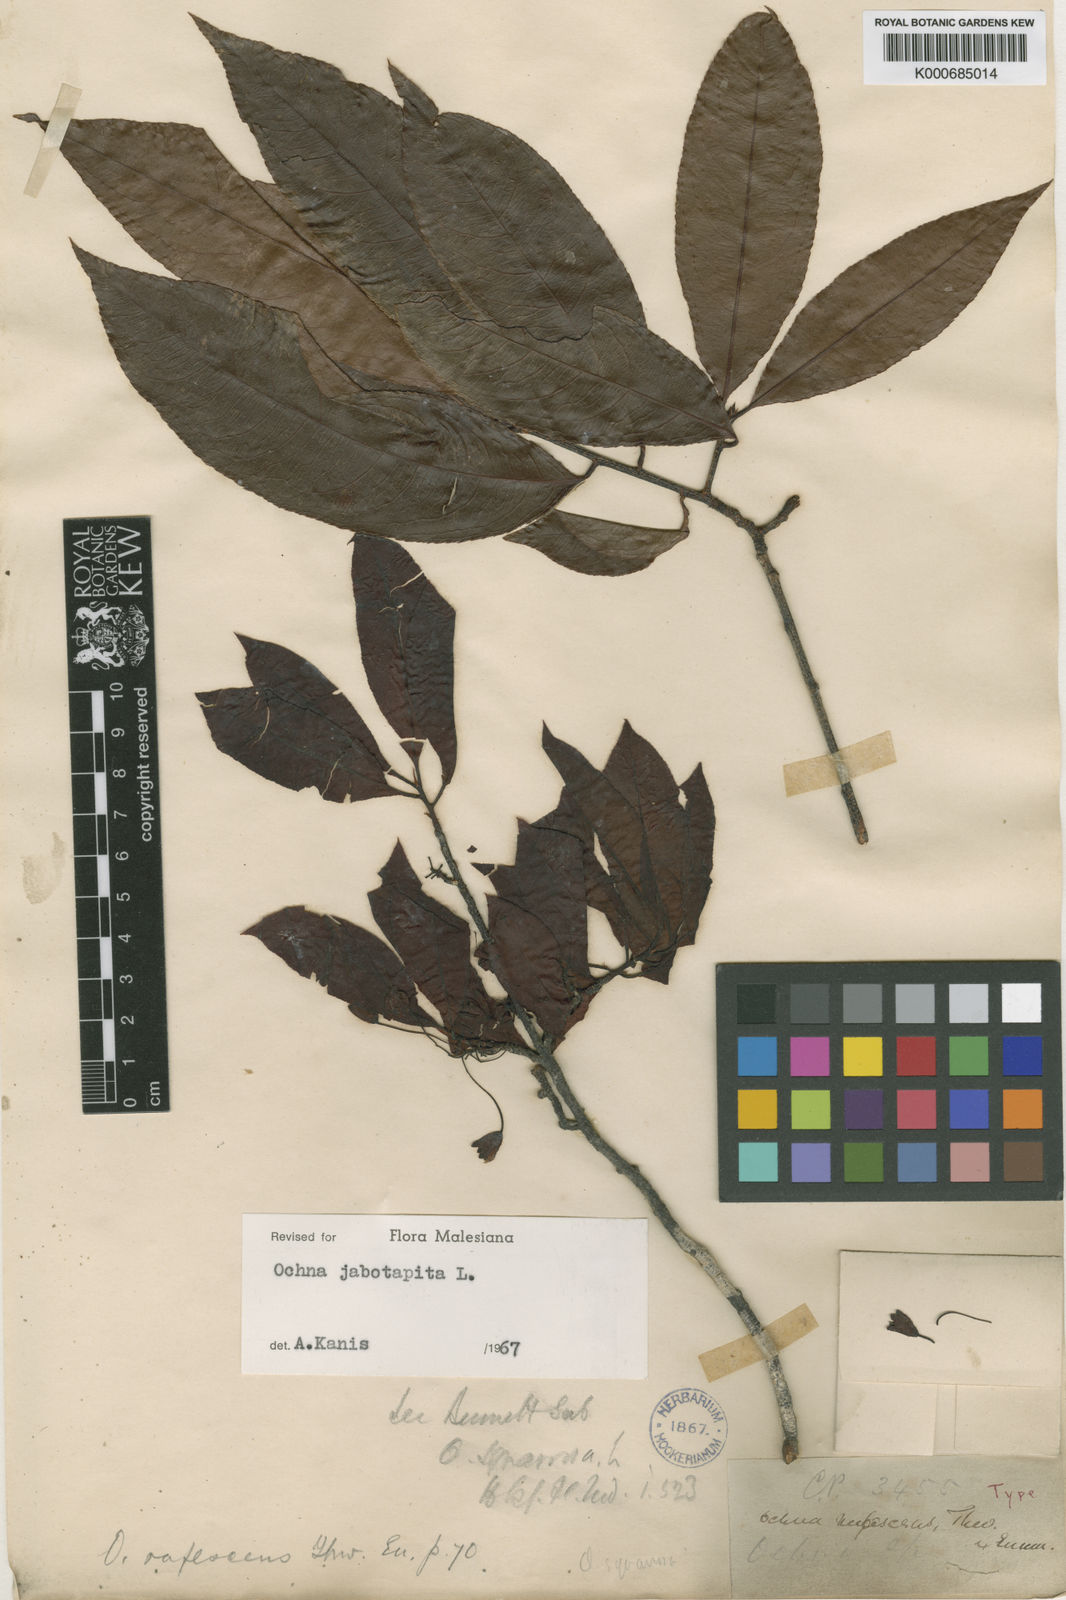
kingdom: Plantae
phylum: Tracheophyta
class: Magnoliopsida
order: Malpighiales
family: Ochnaceae
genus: Ochna
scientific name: Ochna jabotapita
